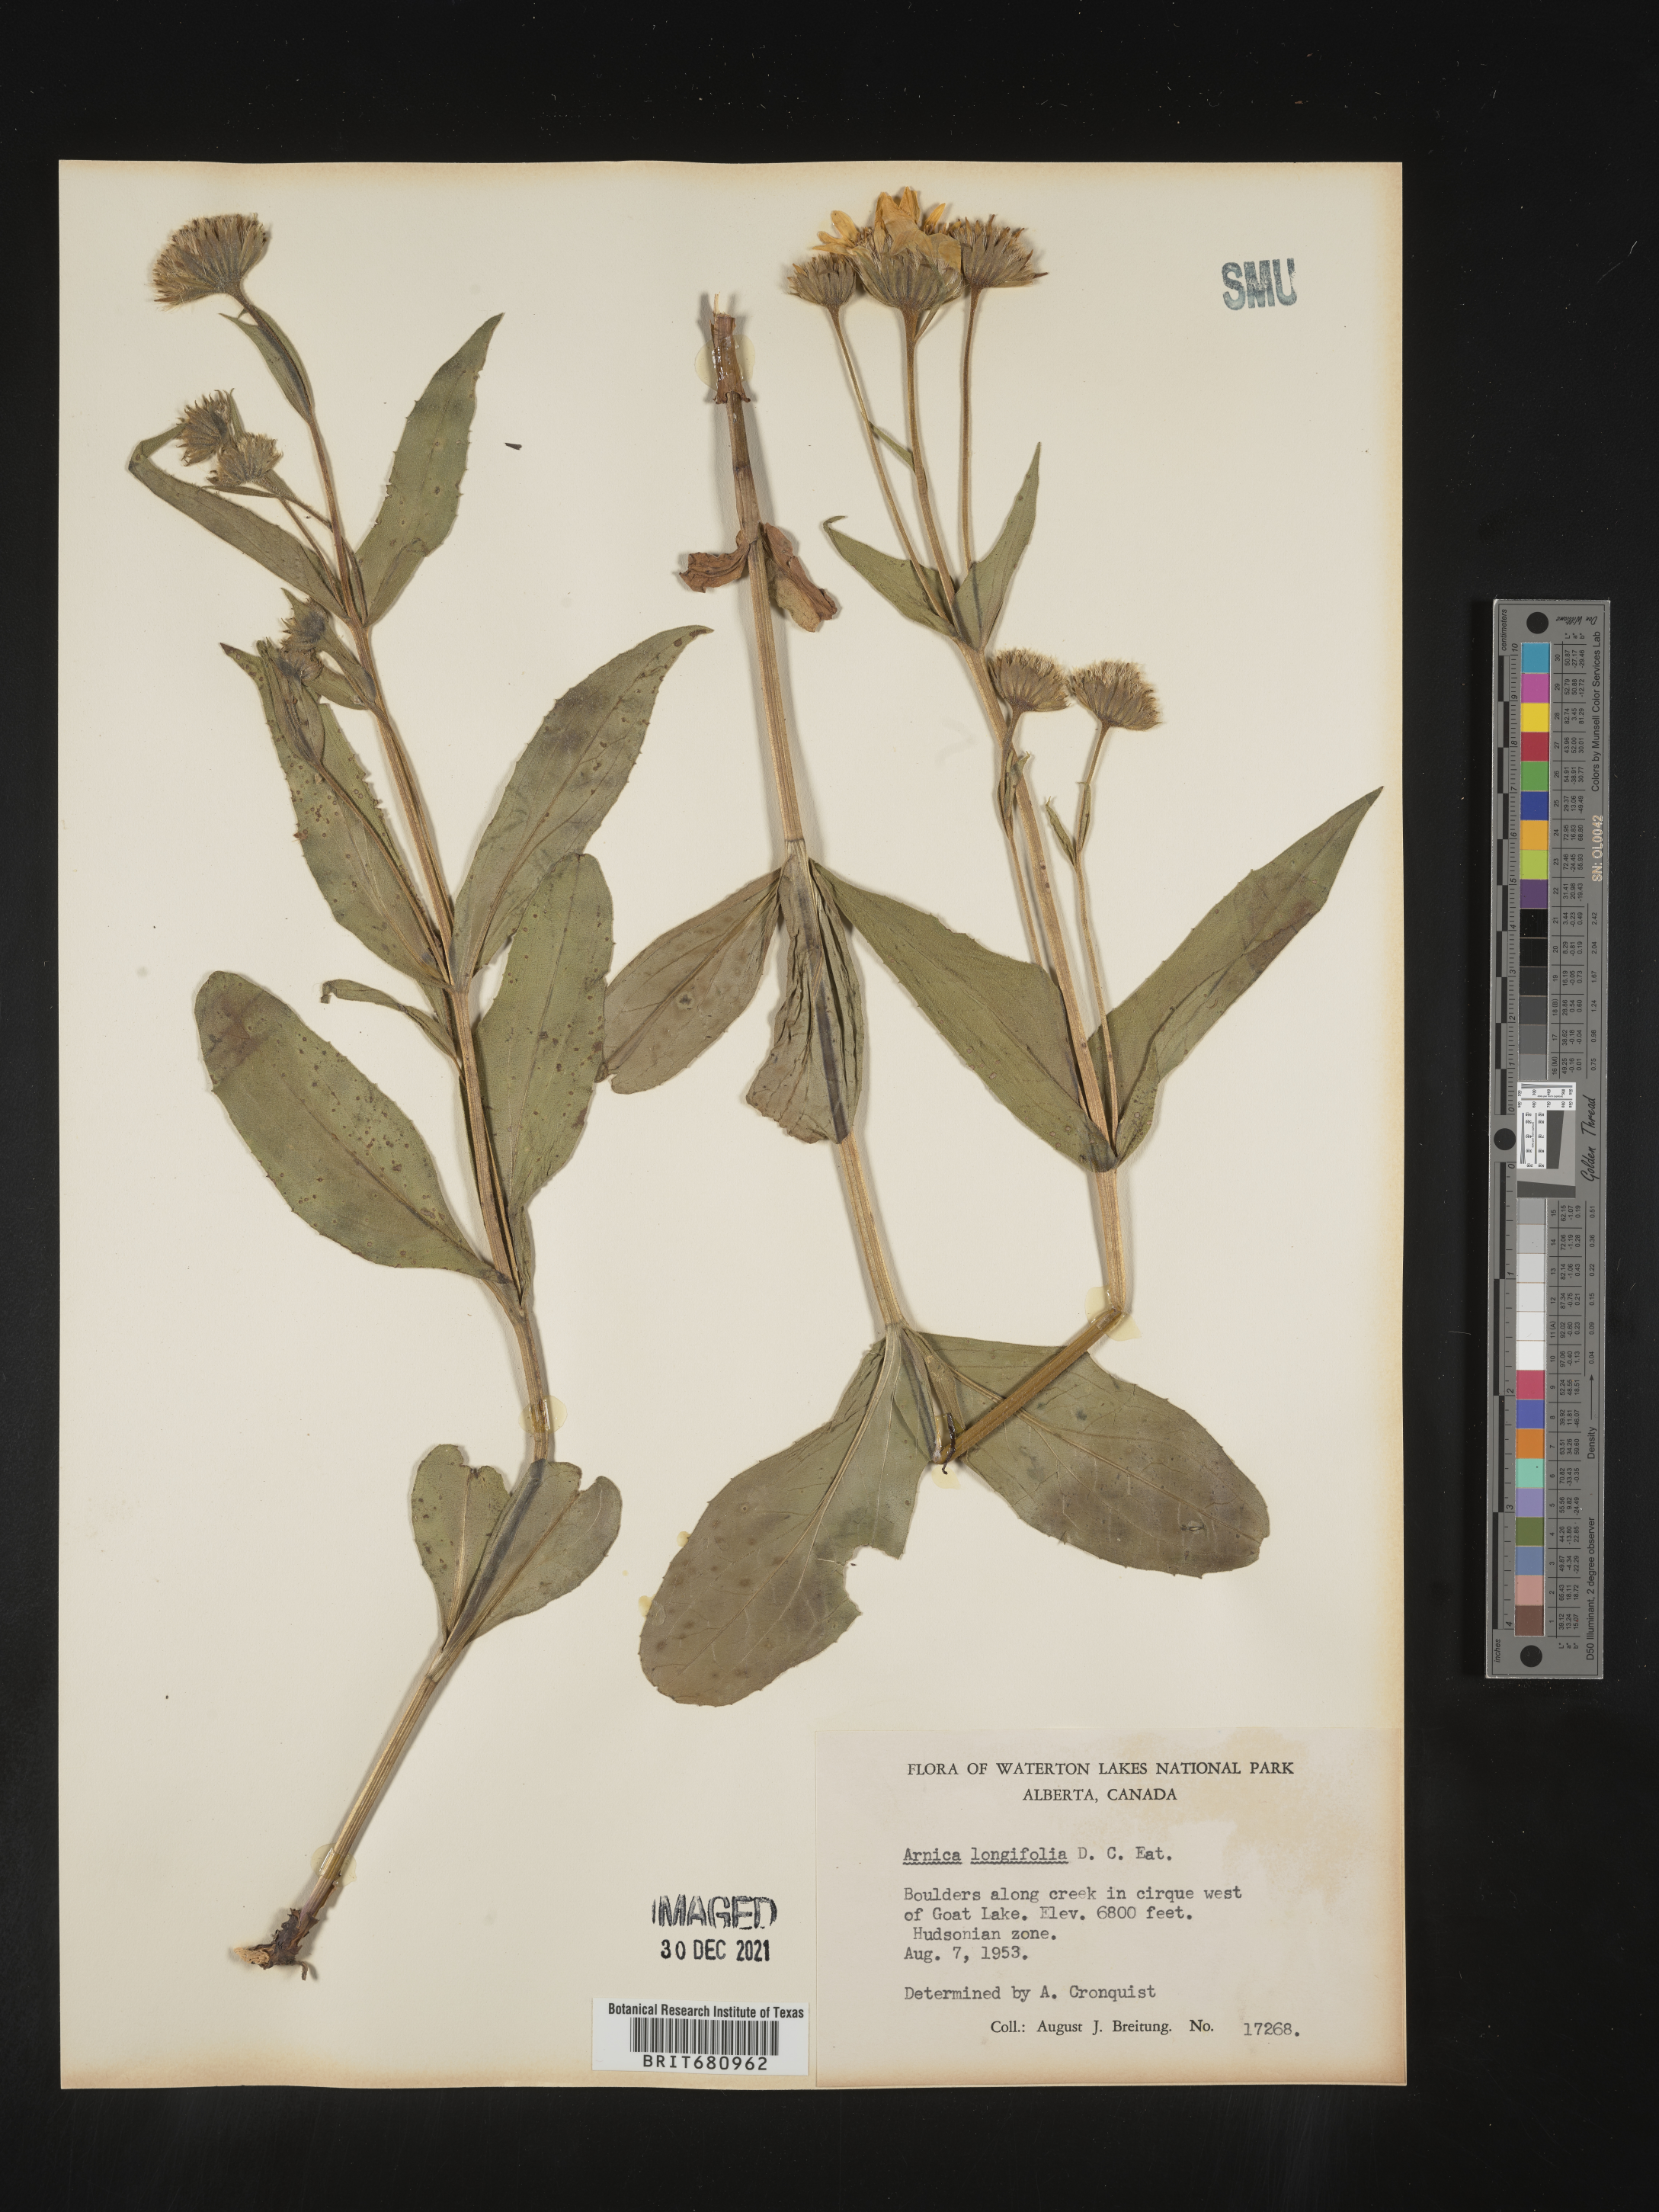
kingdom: Plantae
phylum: Tracheophyta
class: Magnoliopsida
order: Asterales
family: Asteraceae
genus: Arnica
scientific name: Arnica longifolia
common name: Spear-leaf arnica
